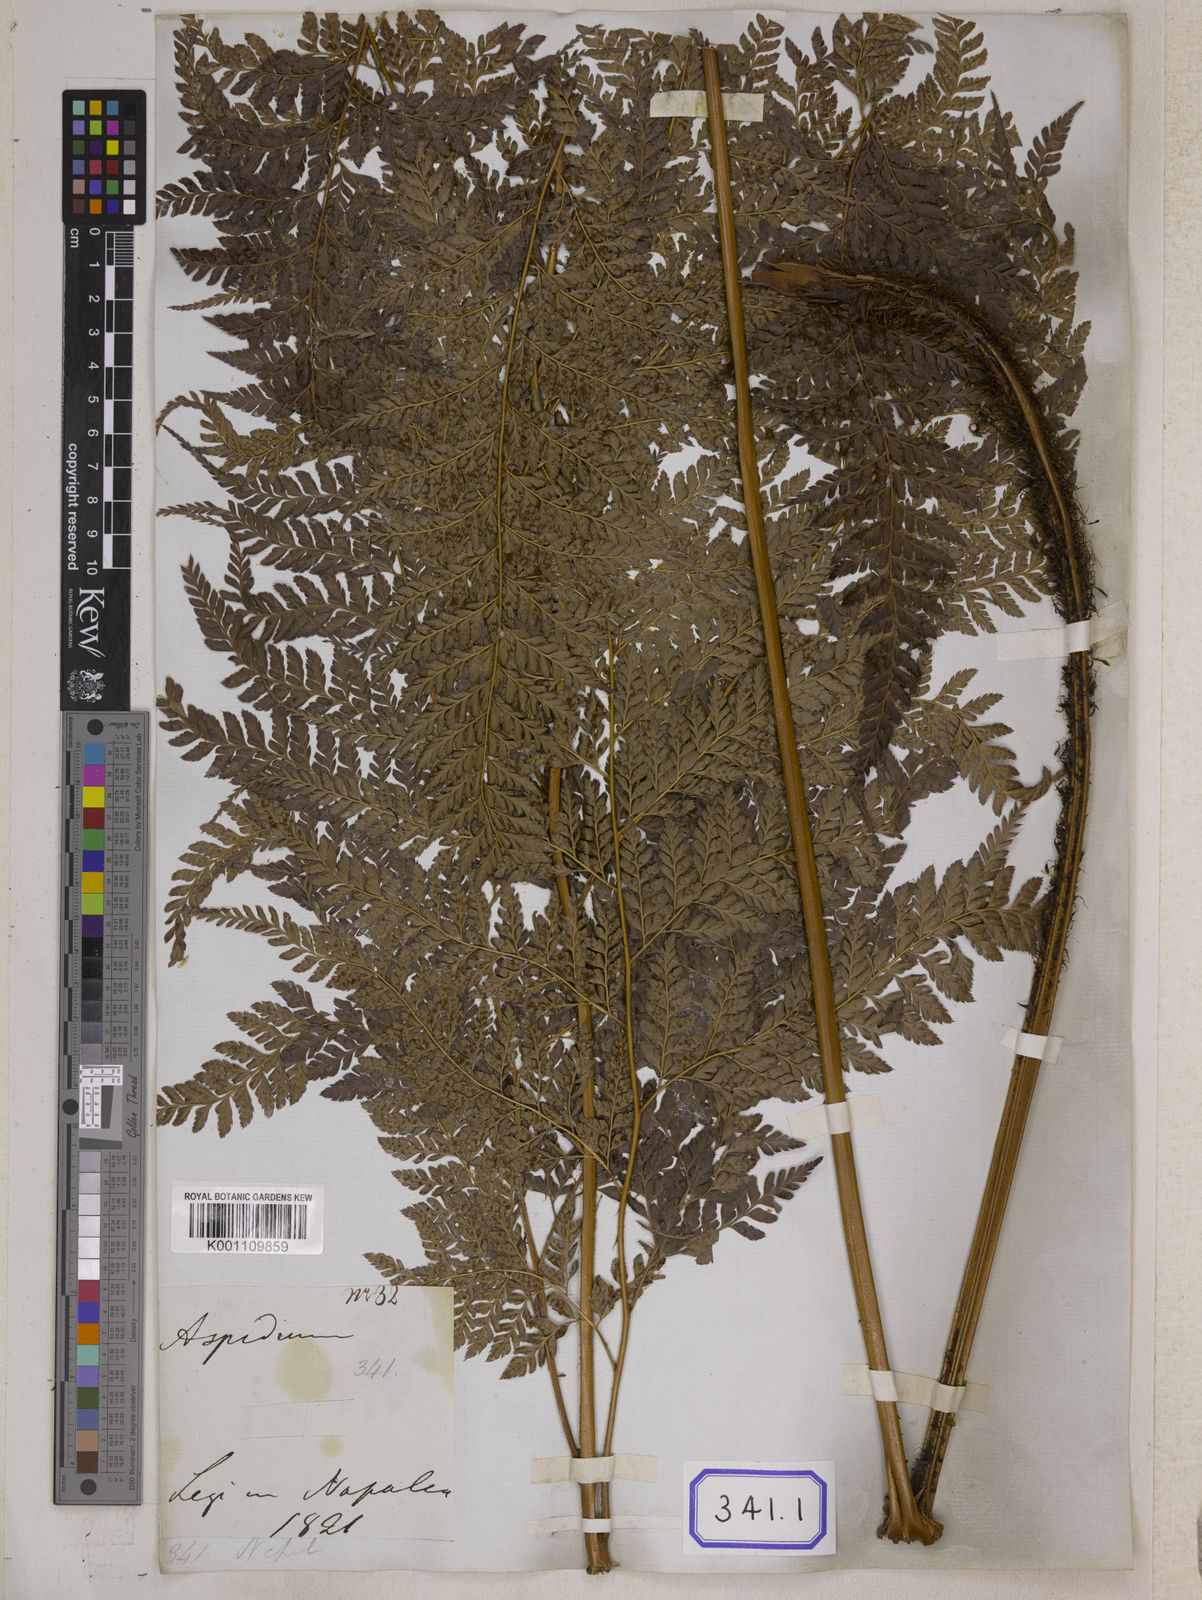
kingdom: Plantae
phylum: Tracheophyta
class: Polypodiopsida
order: Polypodiales
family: Dryopteridaceae
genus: Arachniodes
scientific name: Arachniodes coniifolia
